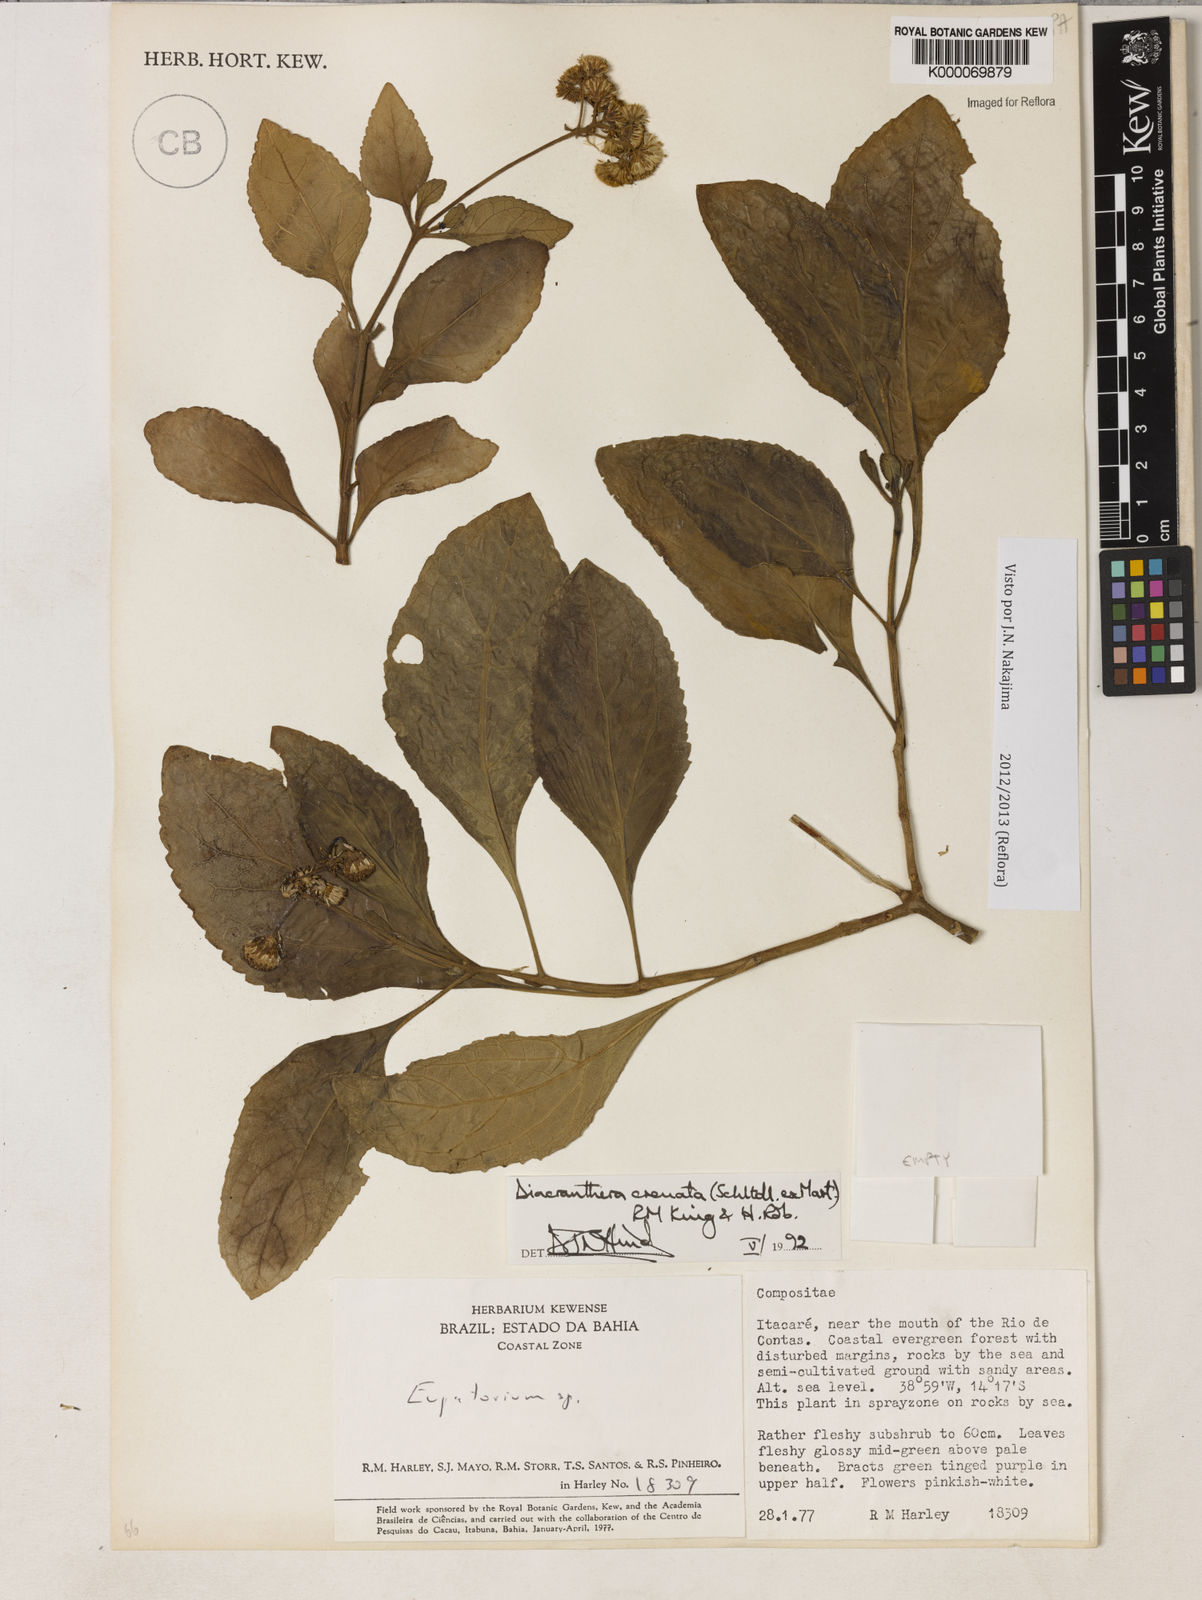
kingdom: Plantae
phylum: Tracheophyta
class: Magnoliopsida
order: Asterales
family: Asteraceae
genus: Diacranthera
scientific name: Diacranthera crenata
